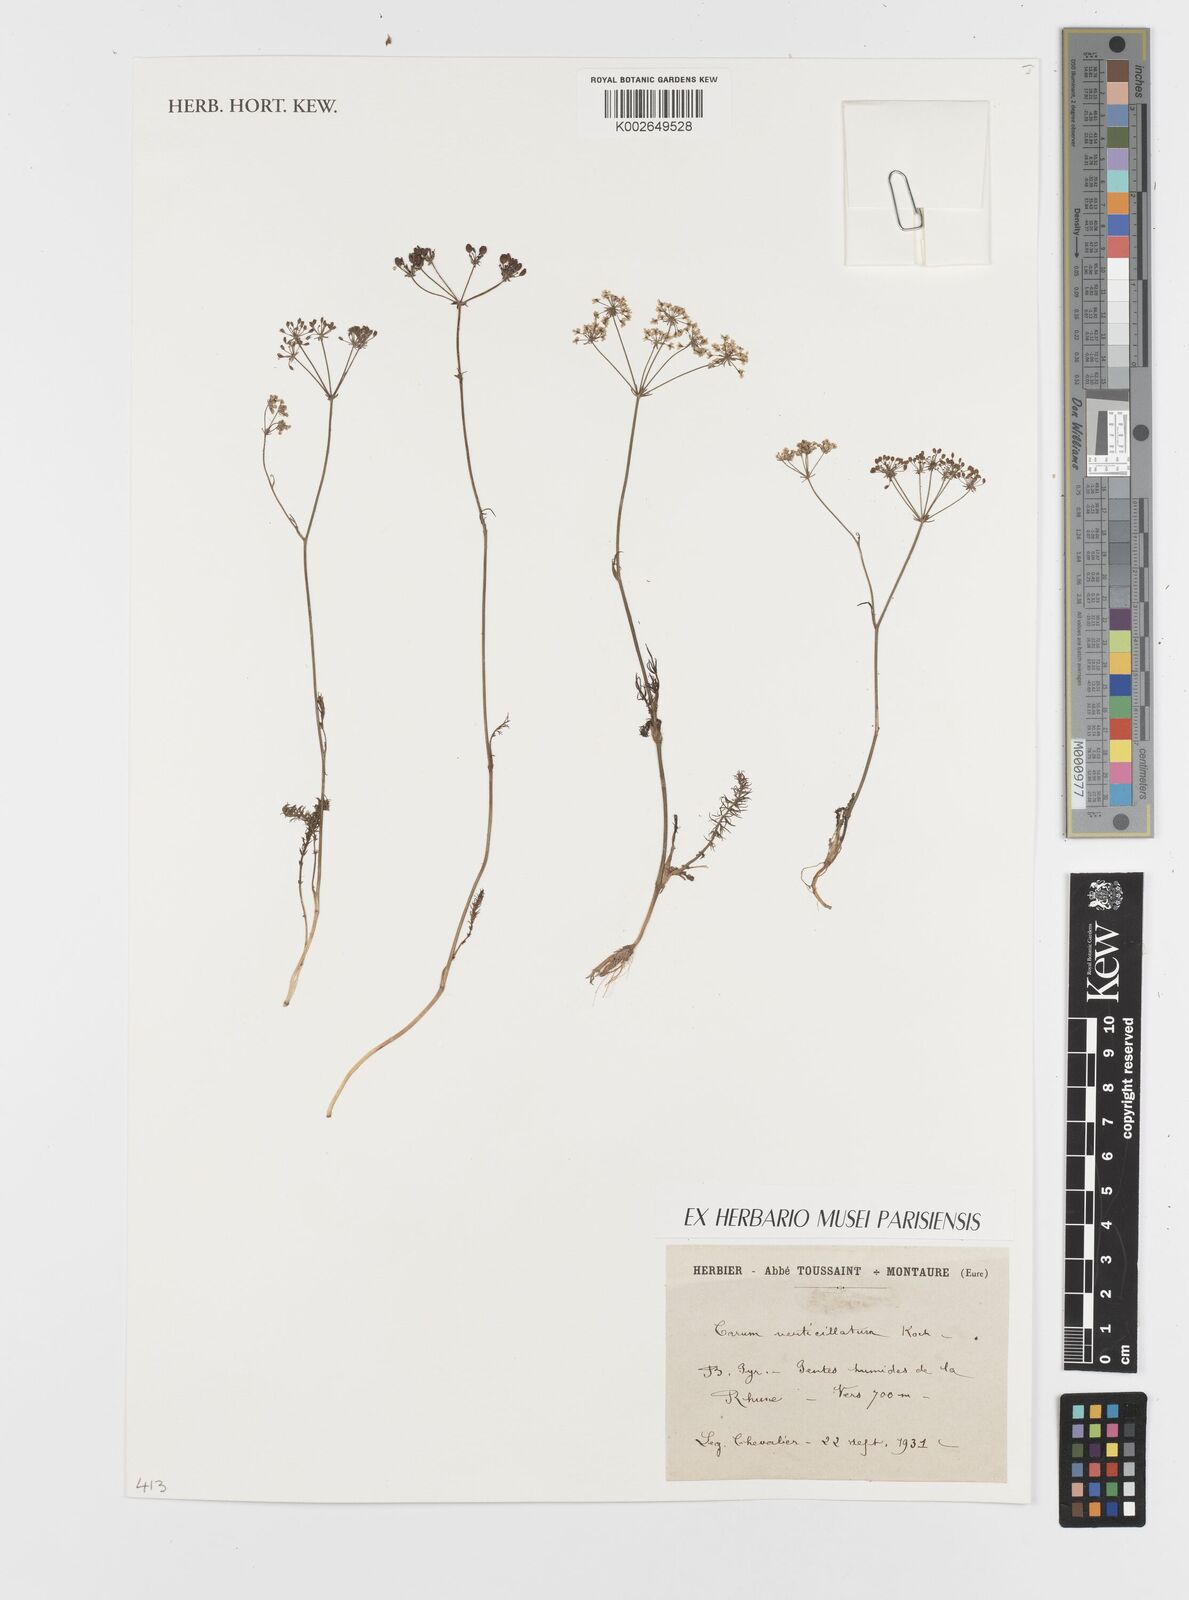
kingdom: Plantae
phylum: Tracheophyta
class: Magnoliopsida
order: Apiales
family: Apiaceae
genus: Trocdaris
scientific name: Trocdaris verticillatum
